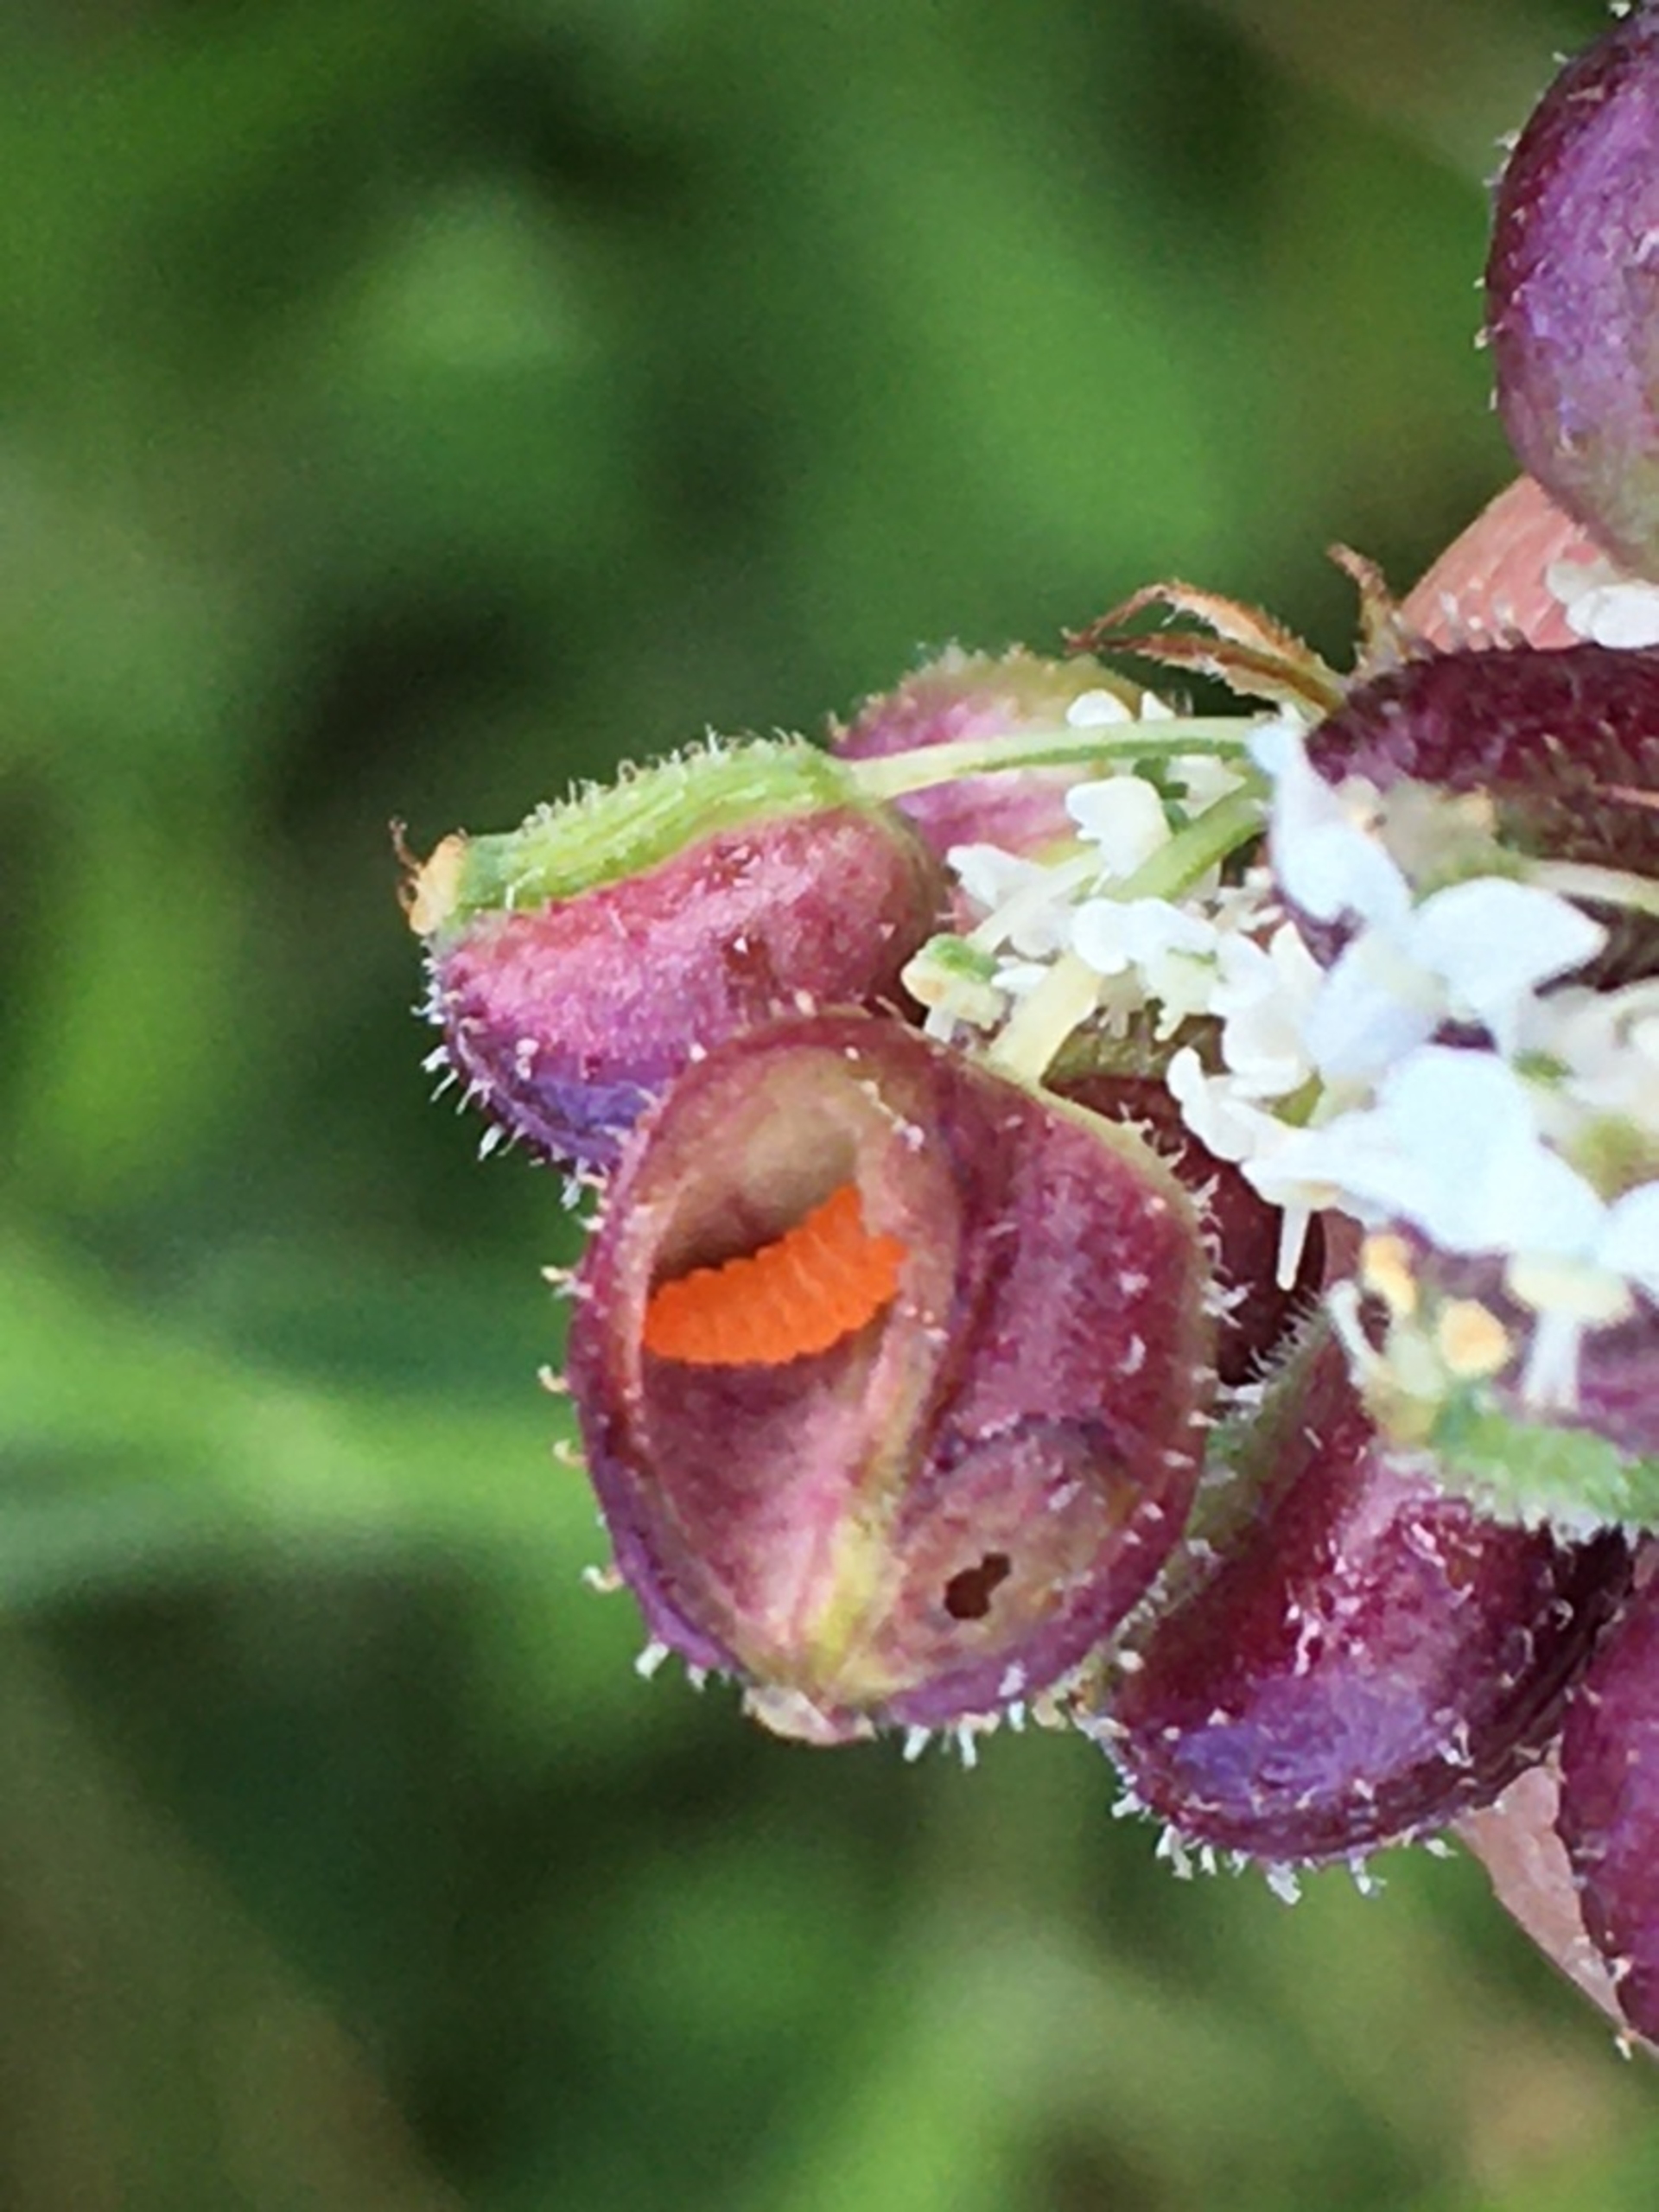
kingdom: Animalia
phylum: Arthropoda
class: Insecta
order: Diptera
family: Cecidomyiidae
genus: Kiefferia
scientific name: Kiefferia pericarpiicola
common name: Gulerodsgalmyg
